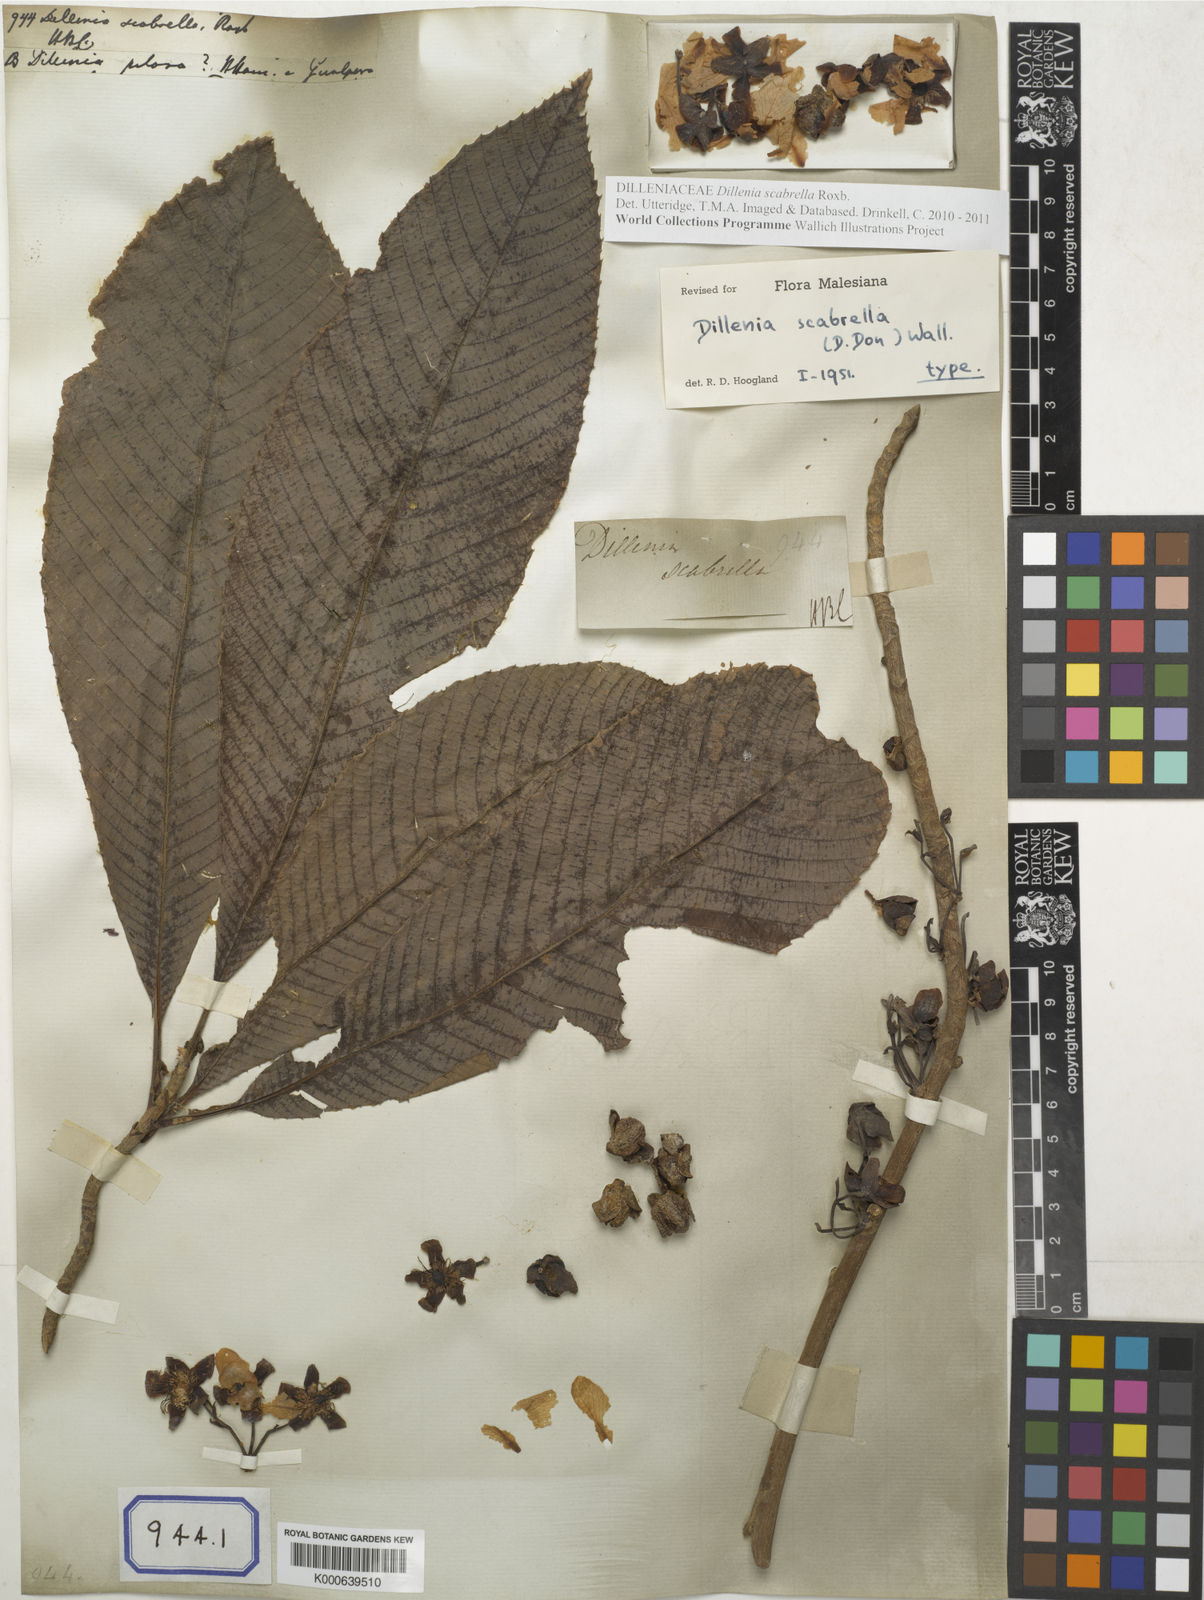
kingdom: Plantae
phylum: Tracheophyta
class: Magnoliopsida
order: Dilleniales
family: Dilleniaceae
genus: Dillenia
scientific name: Dillenia
